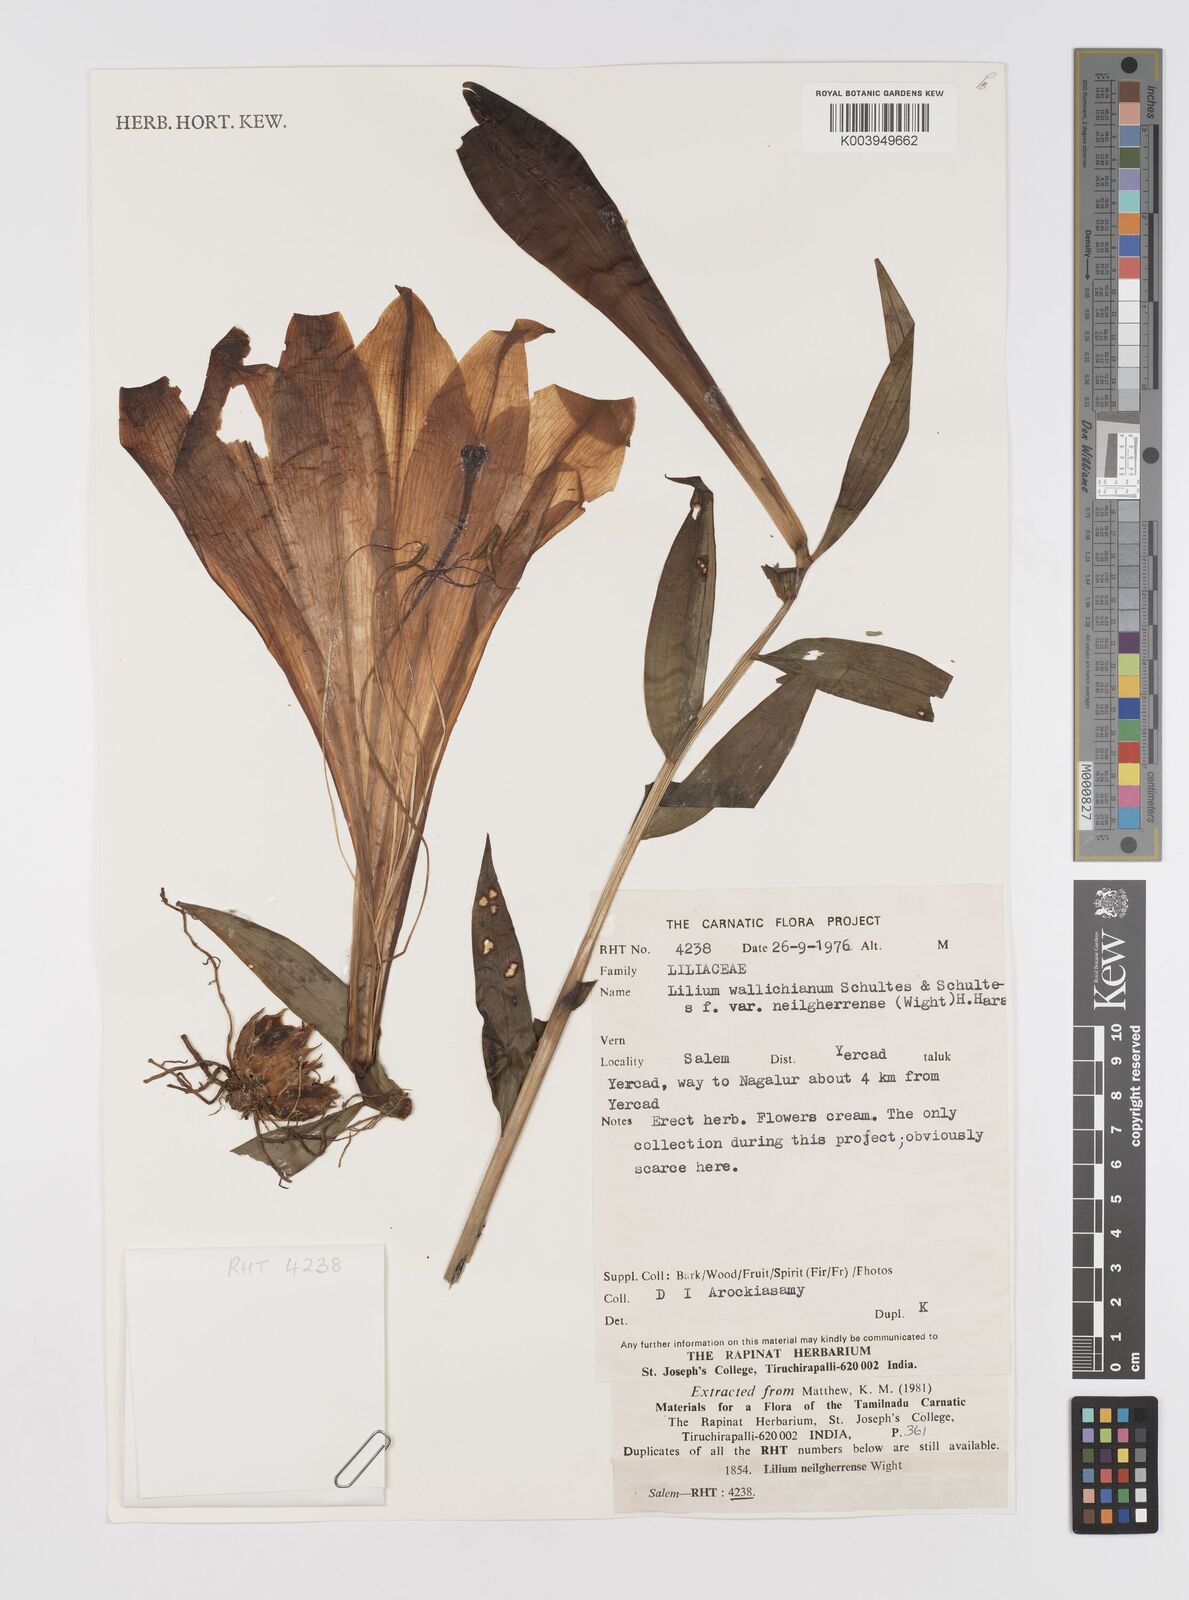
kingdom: Plantae
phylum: Tracheophyta
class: Liliopsida
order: Liliales
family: Liliaceae
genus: Lilium
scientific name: Lilium wallichianum
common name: Wallich's lily
